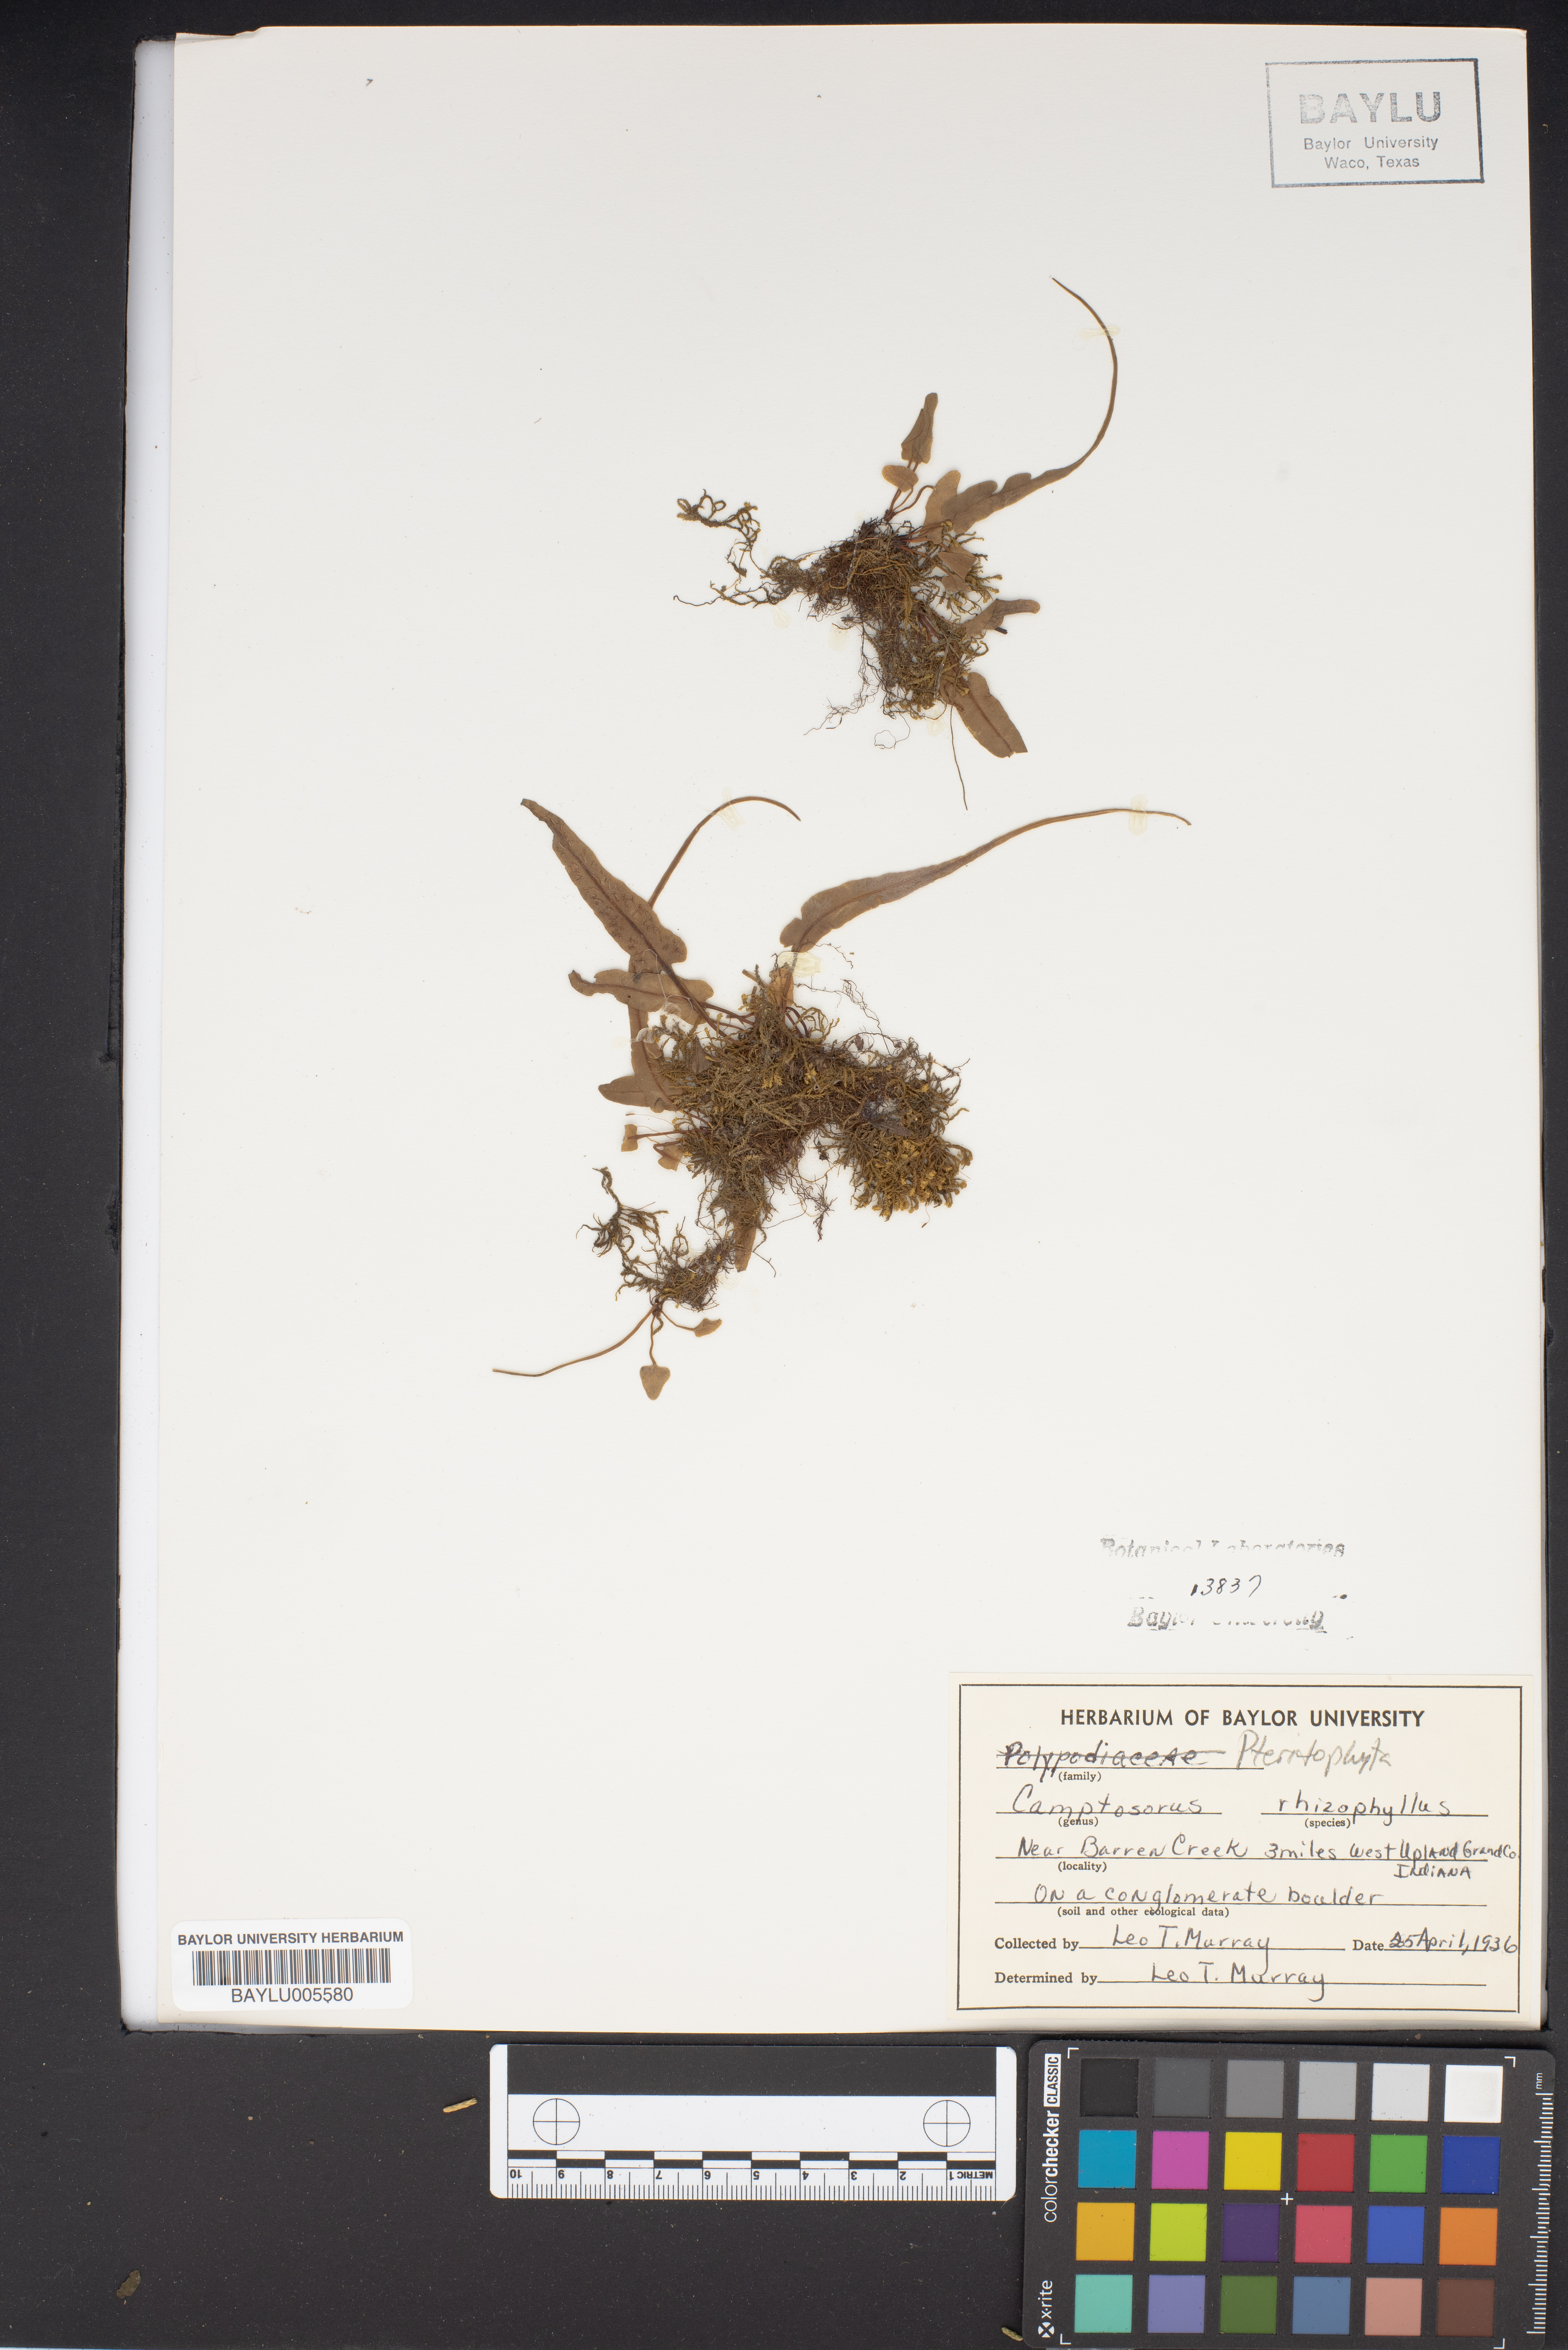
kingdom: Plantae
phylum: Tracheophyta
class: Polypodiopsida
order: Polypodiales
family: Aspleniaceae
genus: Asplenium
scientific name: Asplenium rhizophyllum
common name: Walking fern
